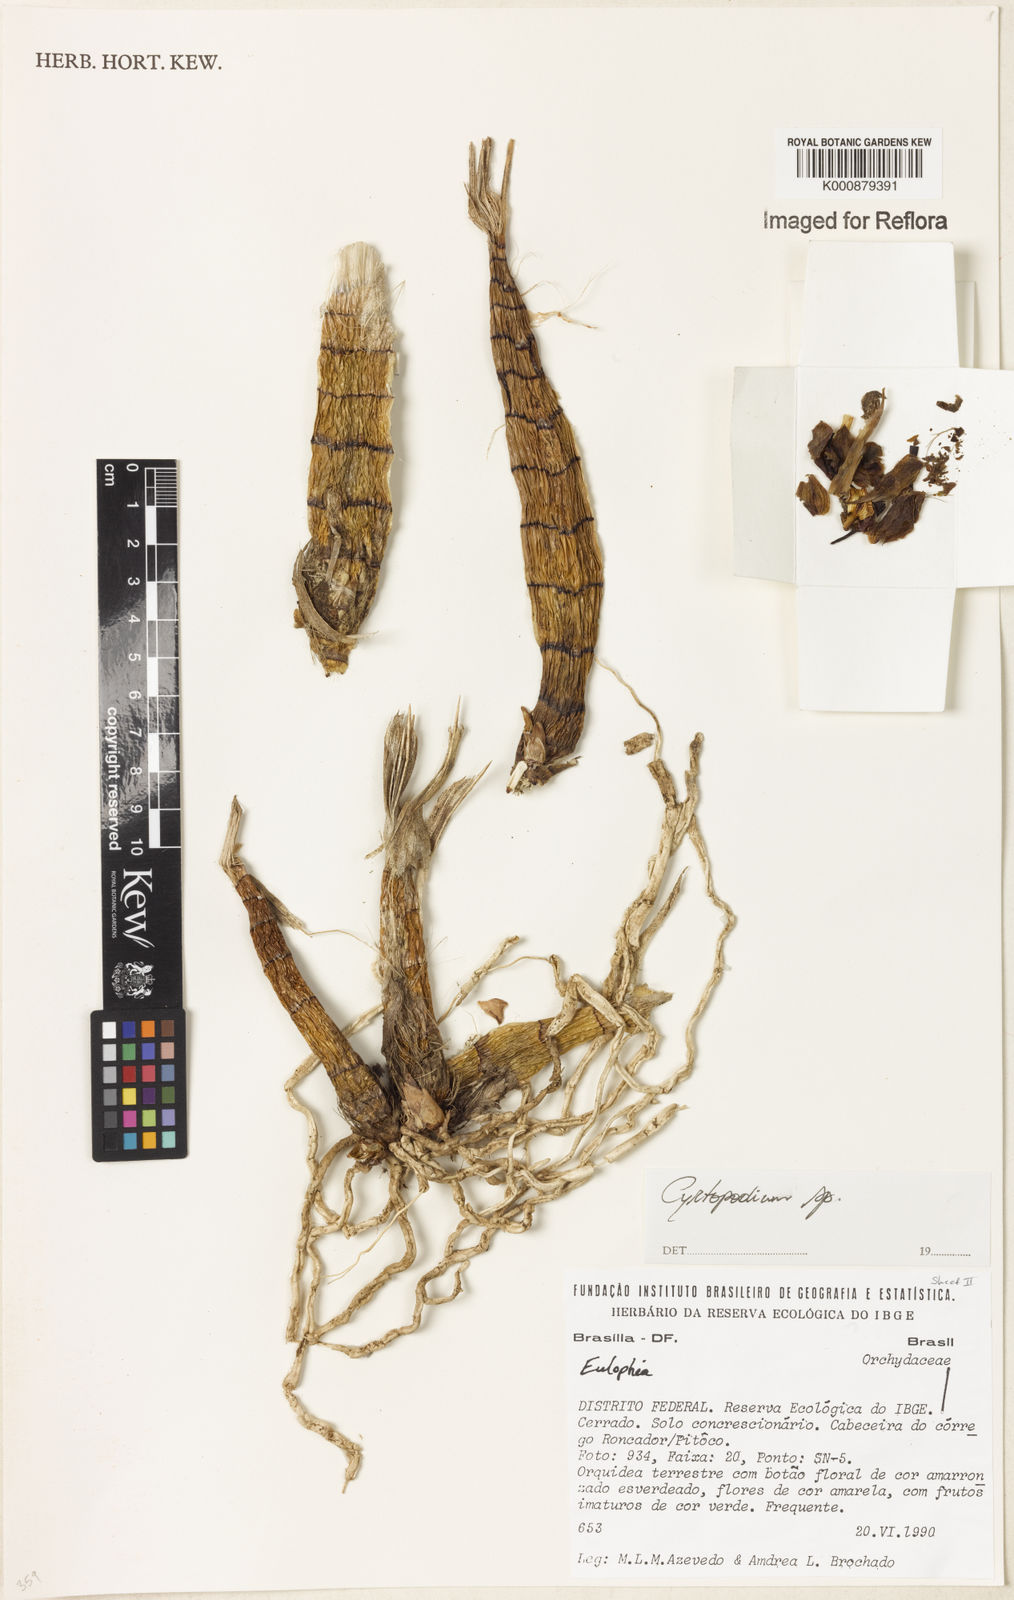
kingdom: Plantae
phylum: Tracheophyta
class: Liliopsida
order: Asparagales
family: Orchidaceae
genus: Cyrtopodium
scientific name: Cyrtopodium
